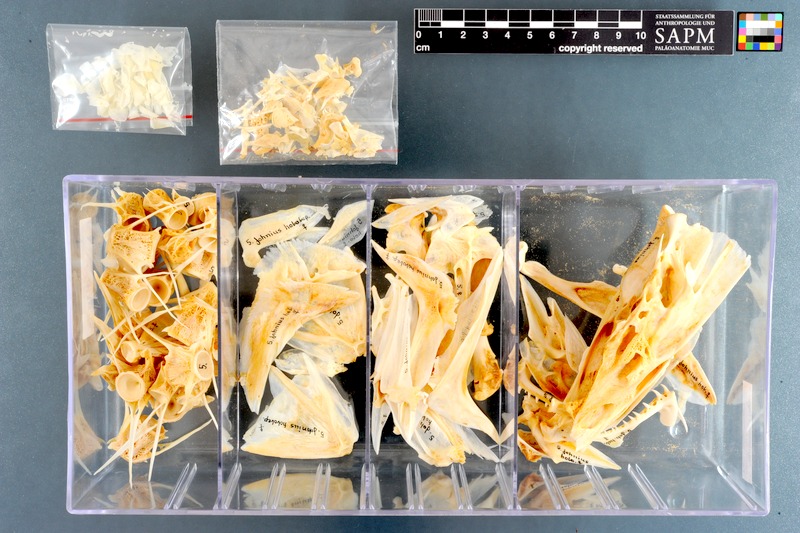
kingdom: Animalia
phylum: Chordata
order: Perciformes
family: Sciaenidae
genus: Argyrosomus
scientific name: Argyrosomus regius
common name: Meagre
